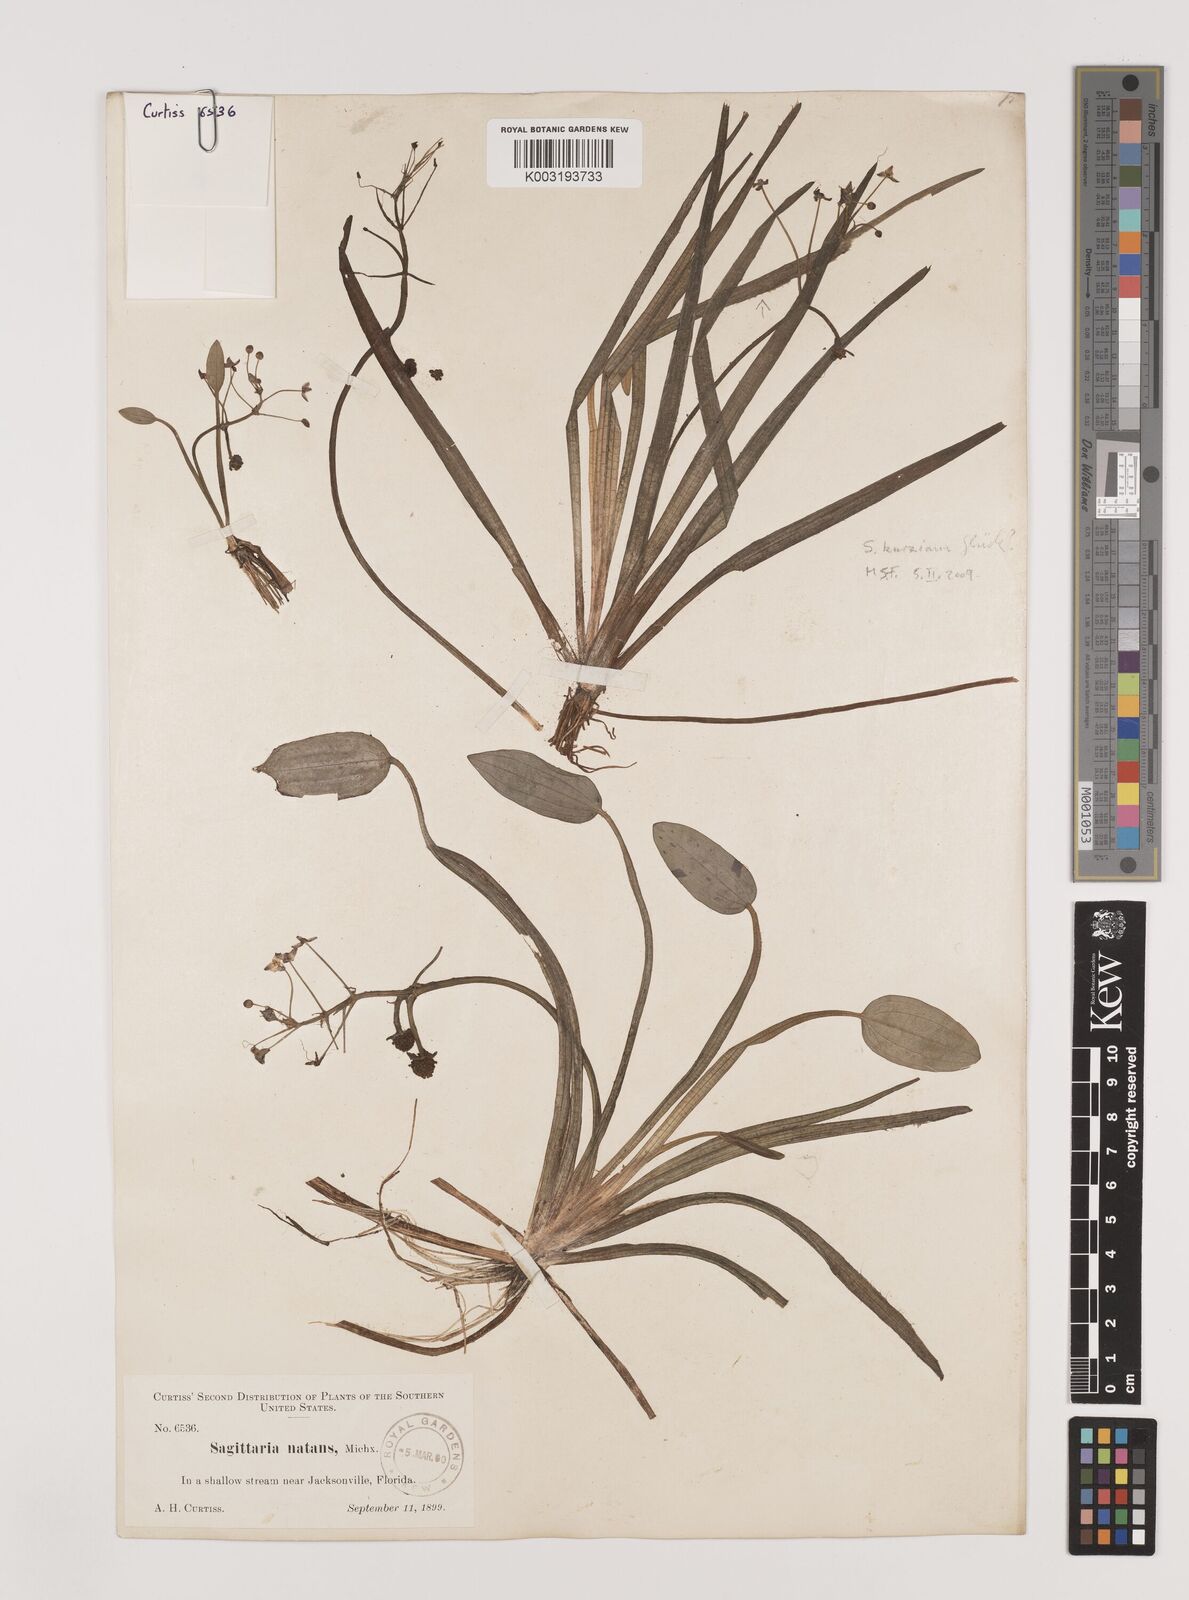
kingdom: Plantae
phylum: Tracheophyta
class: Liliopsida
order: Alismatales
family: Alismataceae
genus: Sagittaria
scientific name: Sagittaria subulata
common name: Narrow-leaved arrowhead
